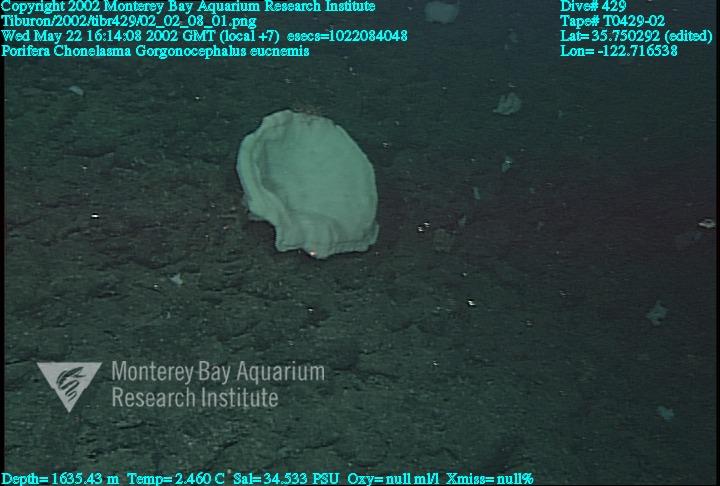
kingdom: Animalia
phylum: Porifera
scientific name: Porifera
